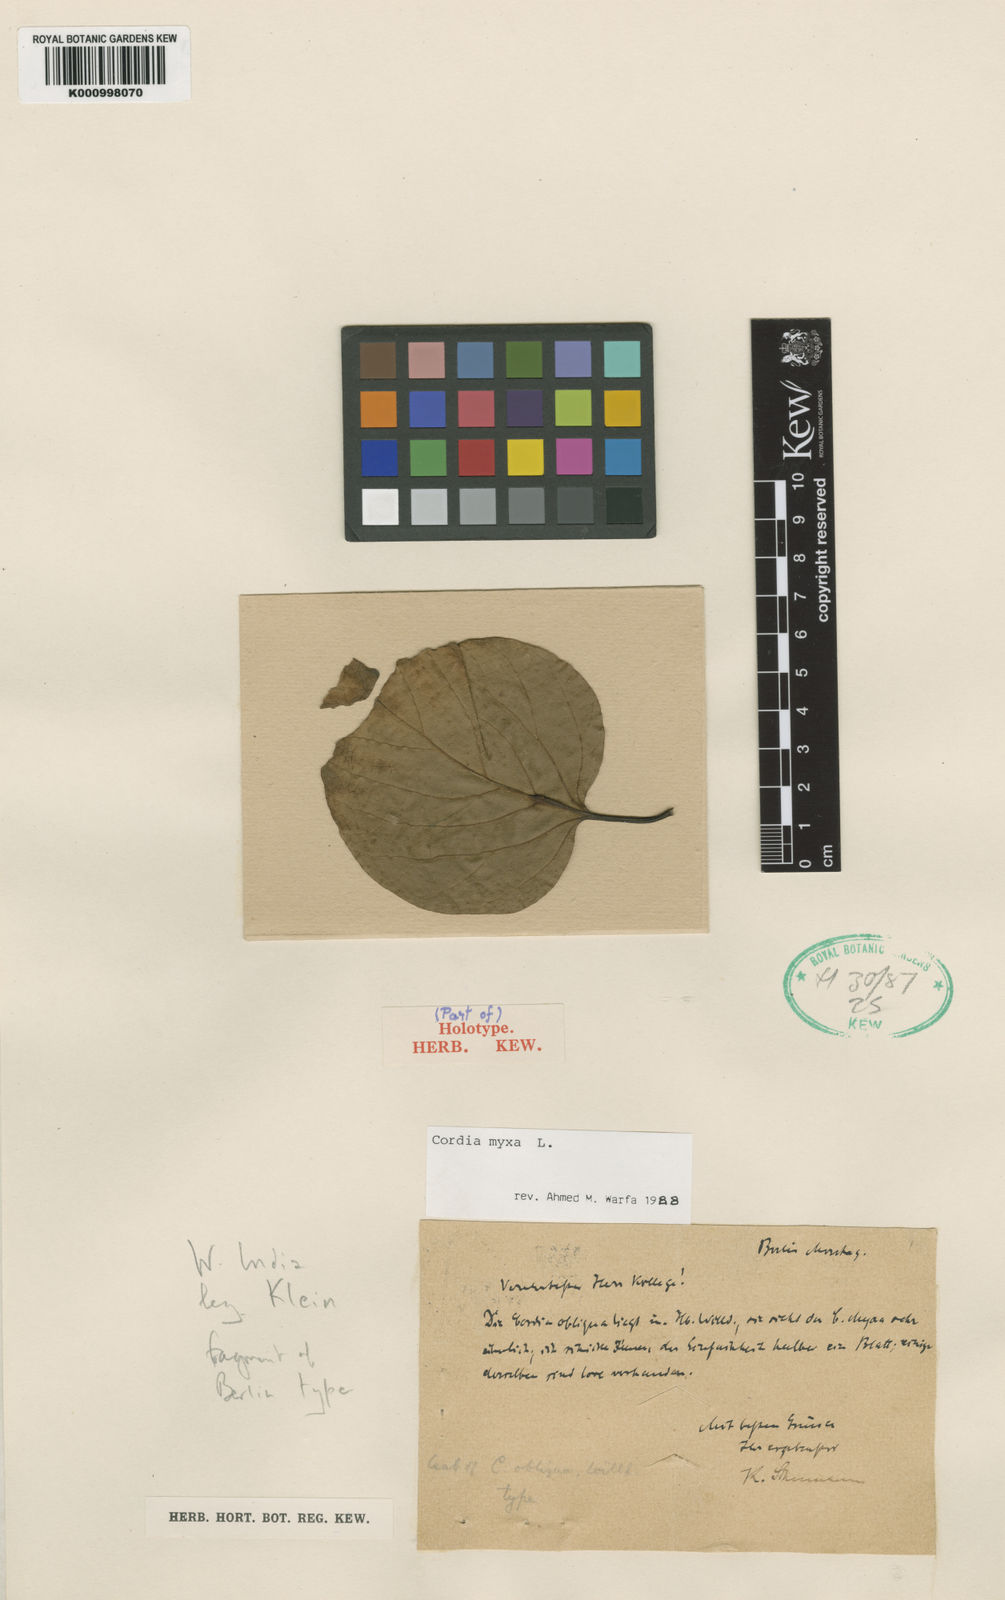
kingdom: Plantae
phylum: Tracheophyta
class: Magnoliopsida
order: Boraginales
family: Cordiaceae
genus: Cordia
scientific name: Cordia myxa
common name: Assyrian plum
